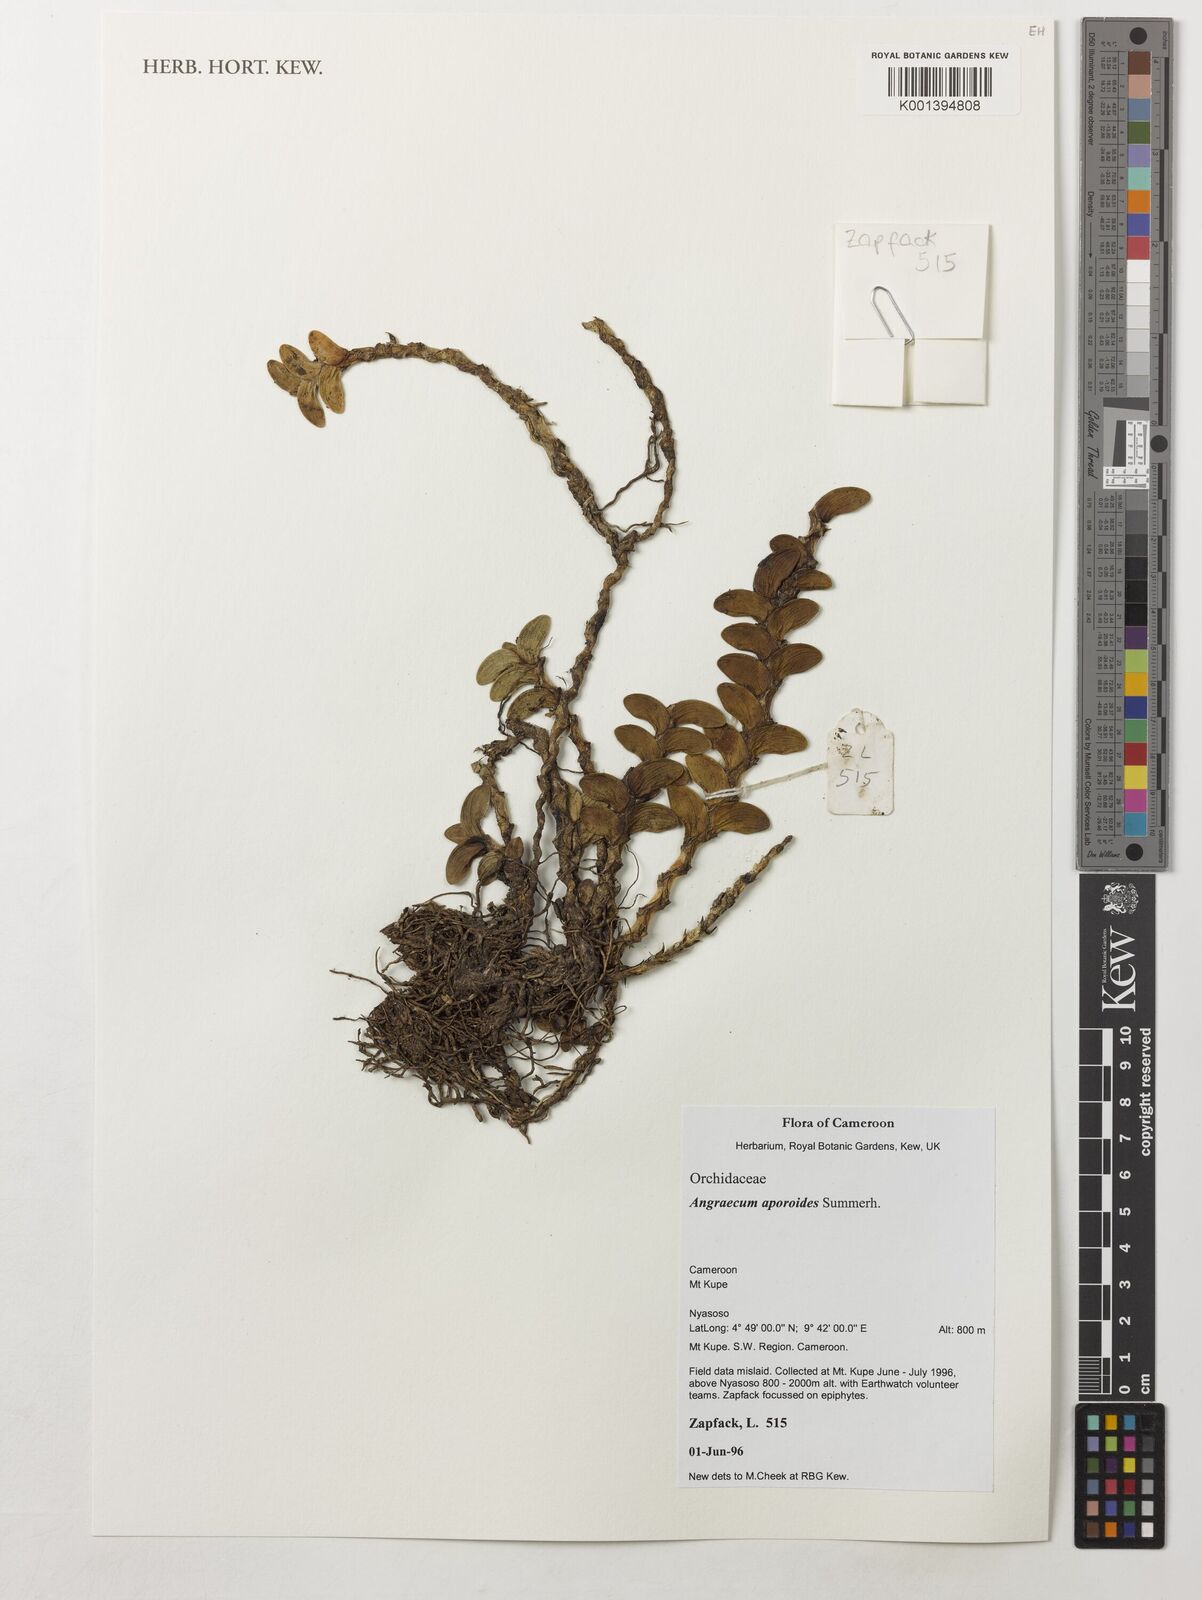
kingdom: Plantae
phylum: Tracheophyta
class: Liliopsida
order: Asparagales
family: Orchidaceae
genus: Angraecum
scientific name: Angraecum aporoides
